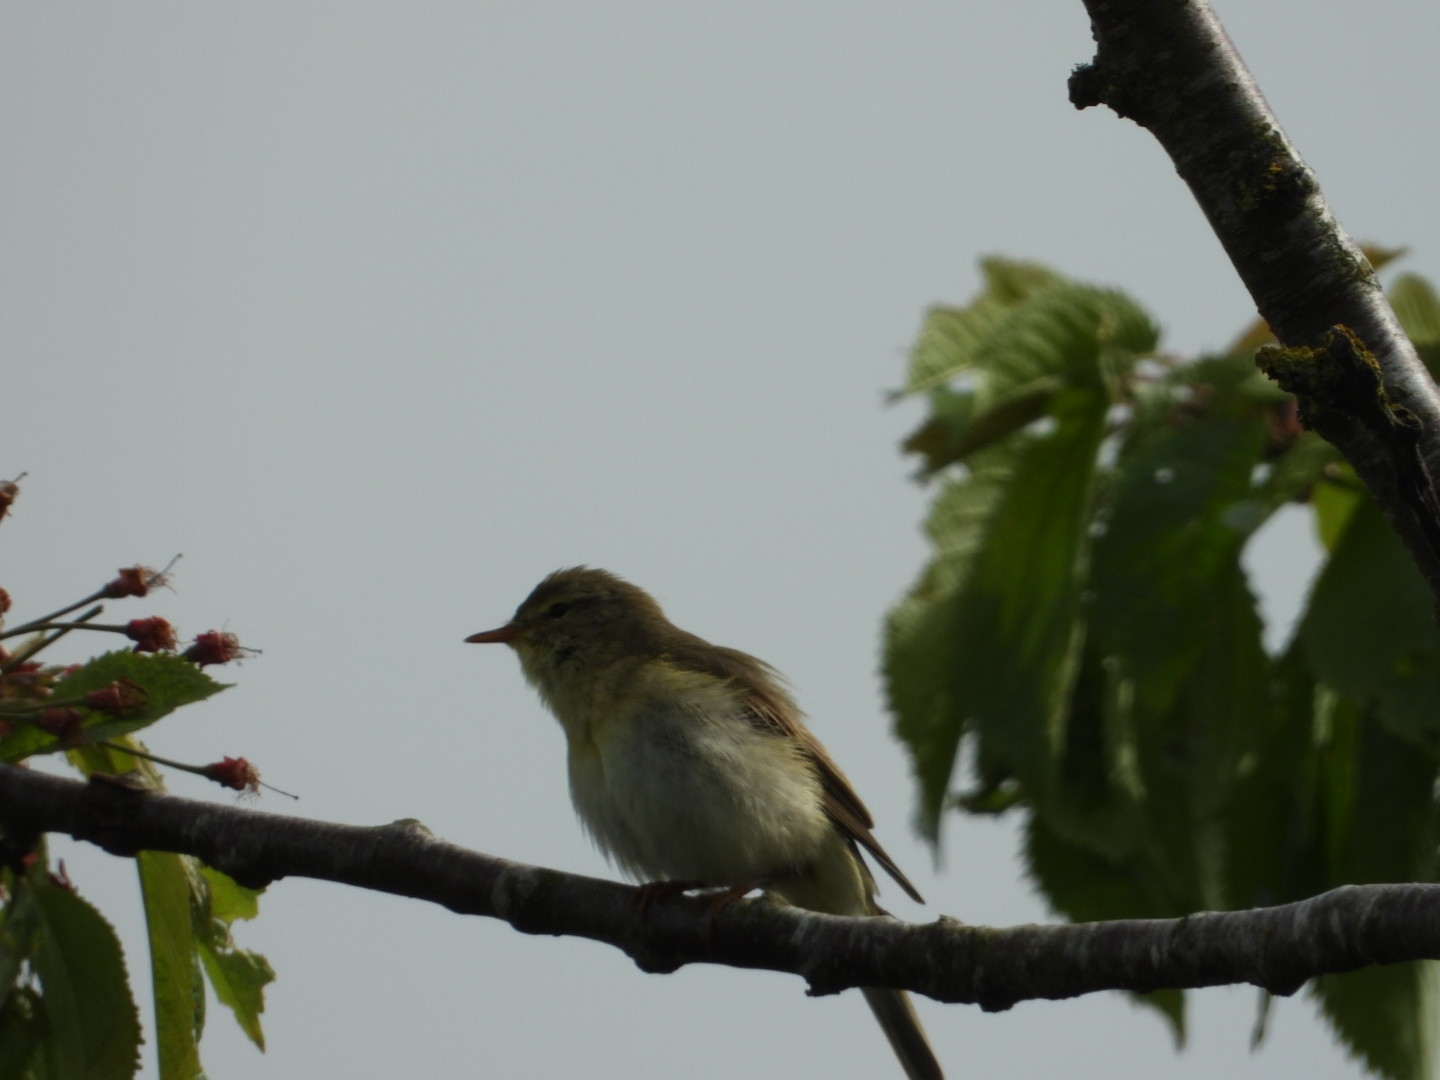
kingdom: Animalia
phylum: Chordata
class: Aves
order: Passeriformes
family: Phylloscopidae
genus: Phylloscopus
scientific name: Phylloscopus trochilus
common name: Løvsanger
